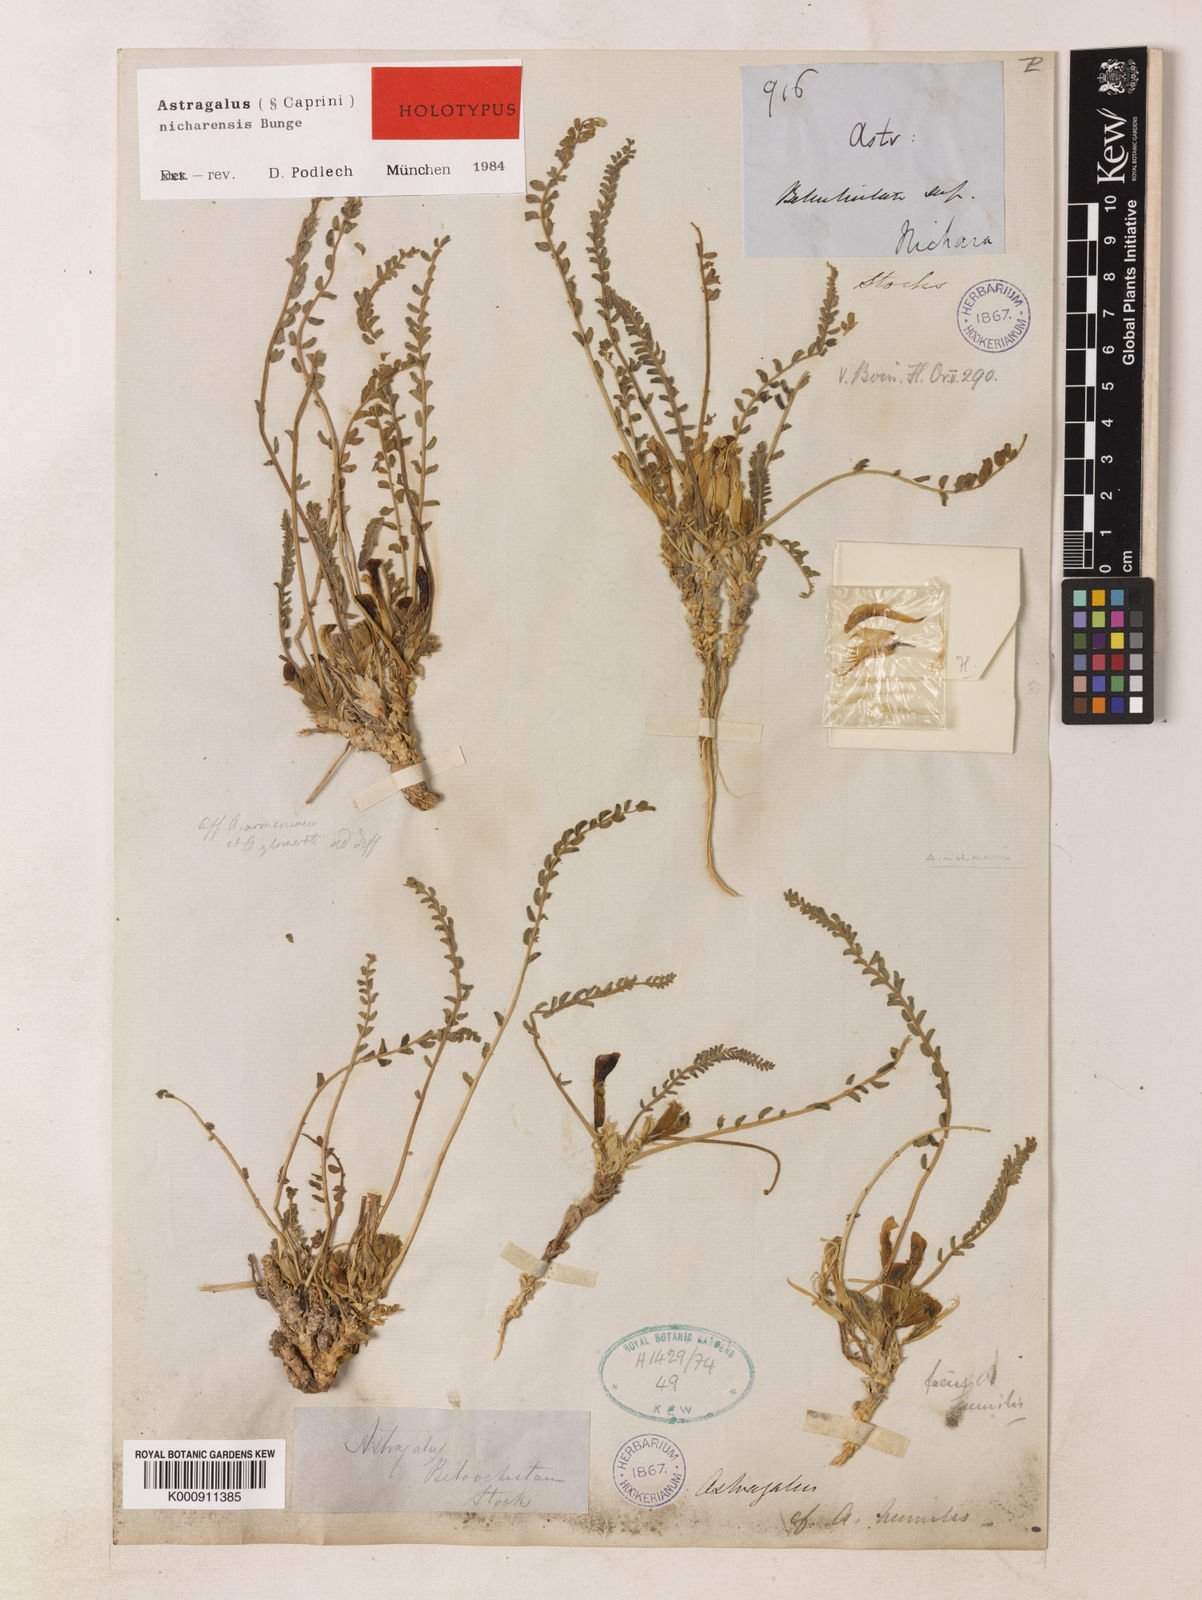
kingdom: Plantae
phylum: Tracheophyta
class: Magnoliopsida
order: Fabales
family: Fabaceae
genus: Astragalus
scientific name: Astragalus nicharensis
